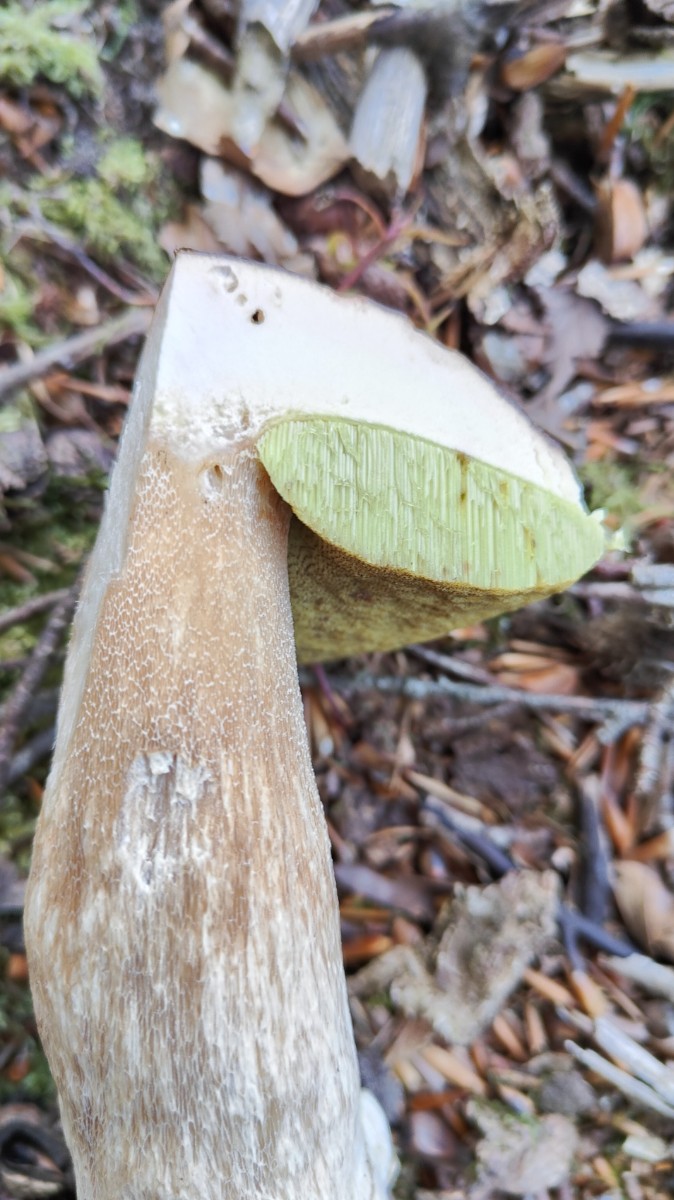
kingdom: Fungi
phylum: Basidiomycota
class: Agaricomycetes
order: Boletales
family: Boletaceae
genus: Boletus
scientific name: Boletus edulis
